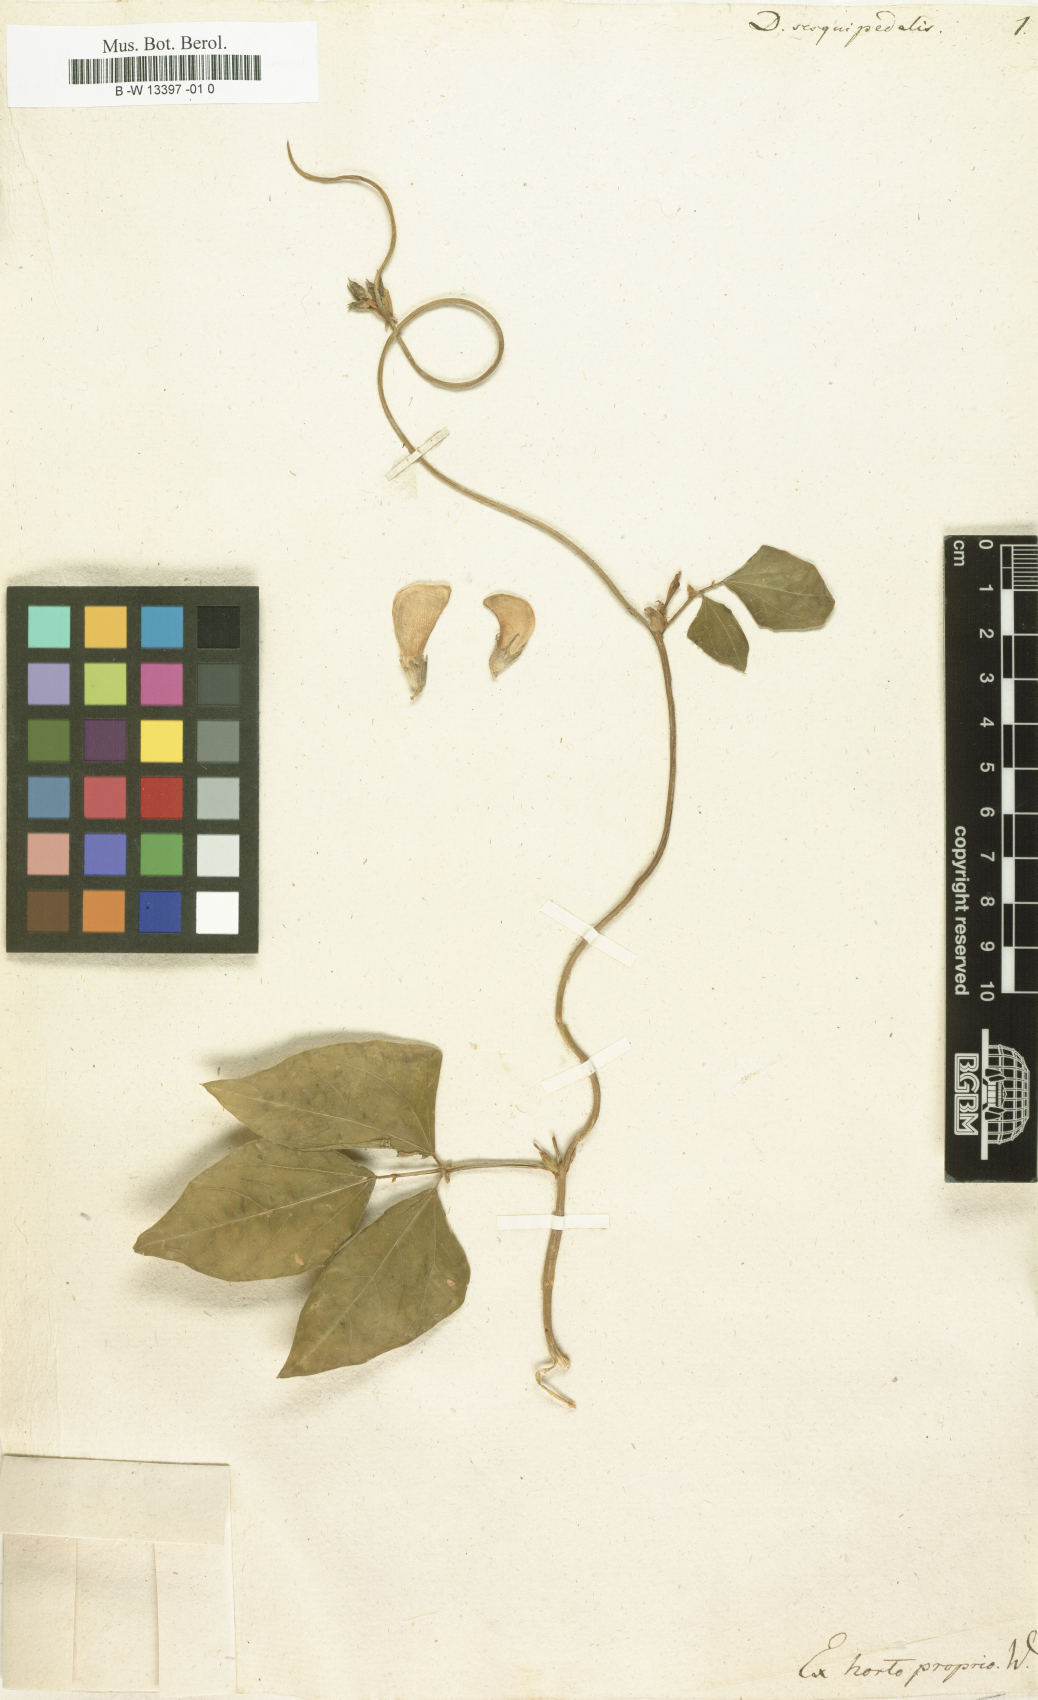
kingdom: Plantae
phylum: Tracheophyta
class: Magnoliopsida
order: Fabales
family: Fabaceae
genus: Vigna
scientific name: Vigna unguiculata
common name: Cowpea
